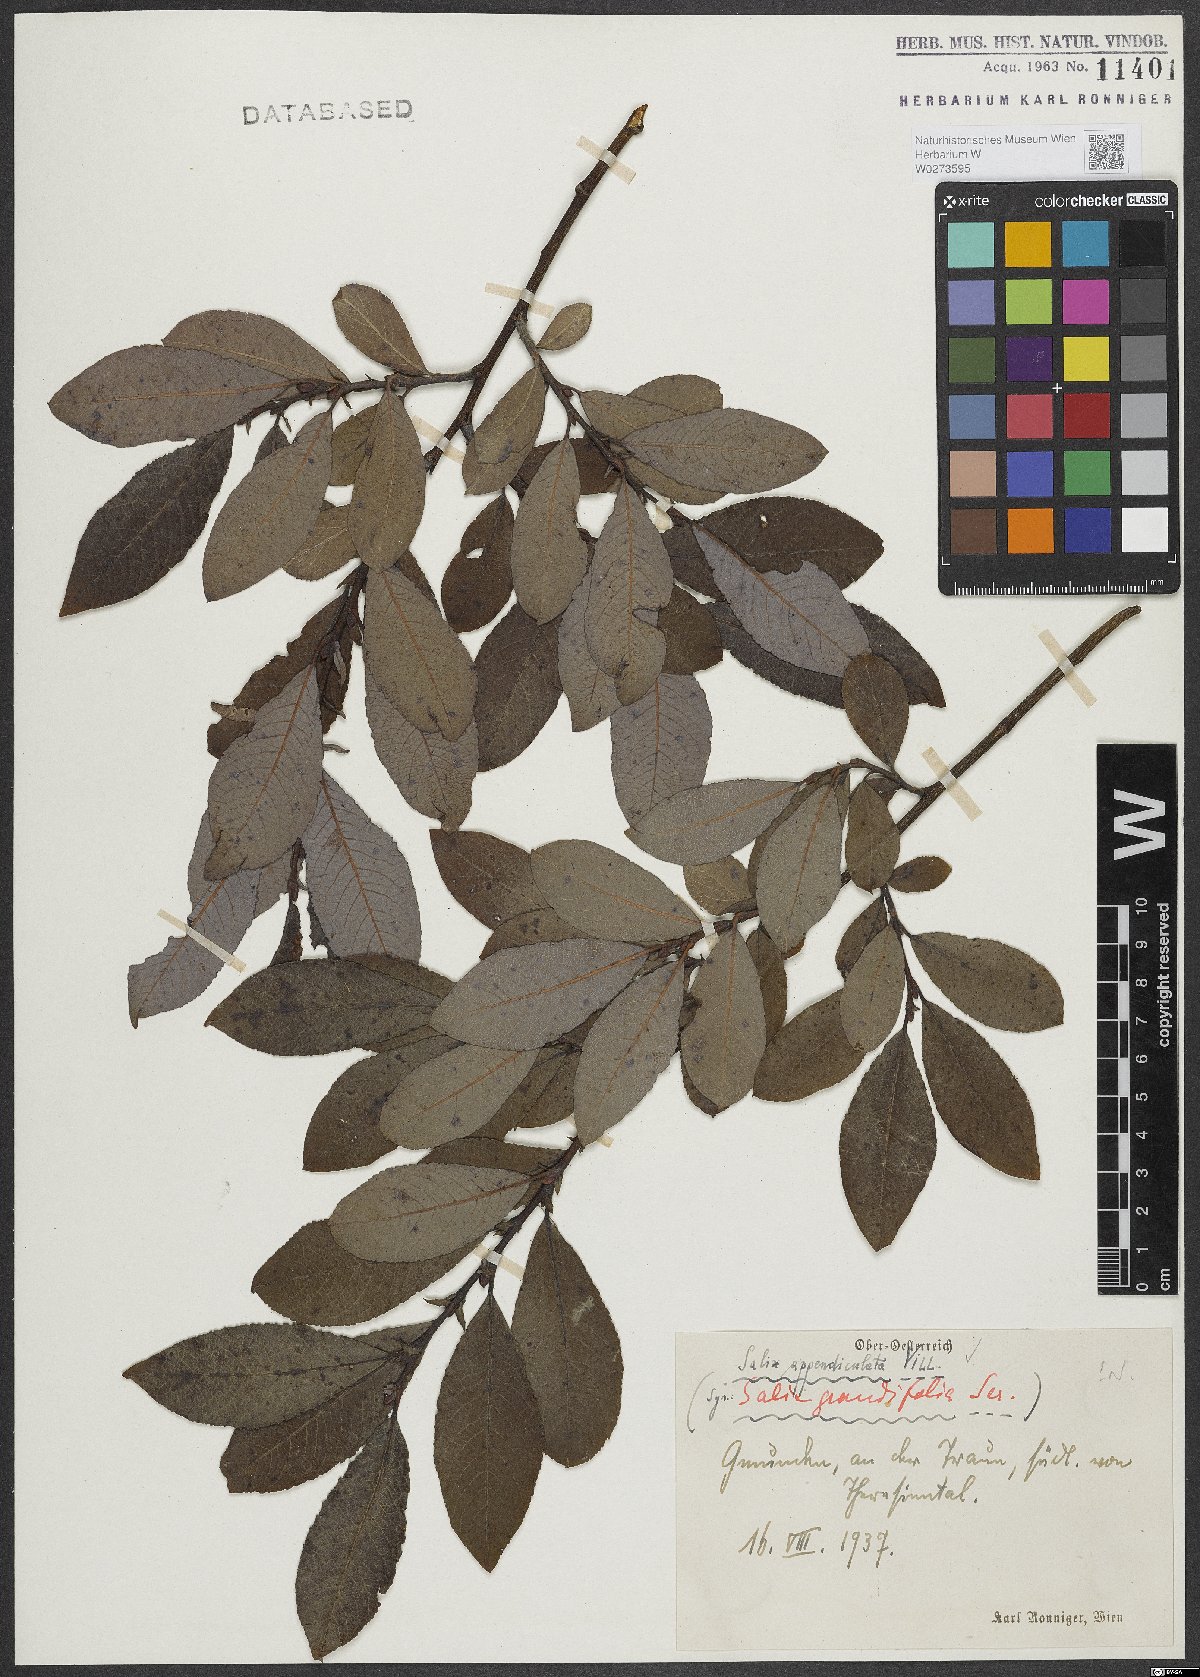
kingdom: Plantae
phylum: Tracheophyta
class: Magnoliopsida
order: Malpighiales
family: Salicaceae
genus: Salix
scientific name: Salix appendiculata
